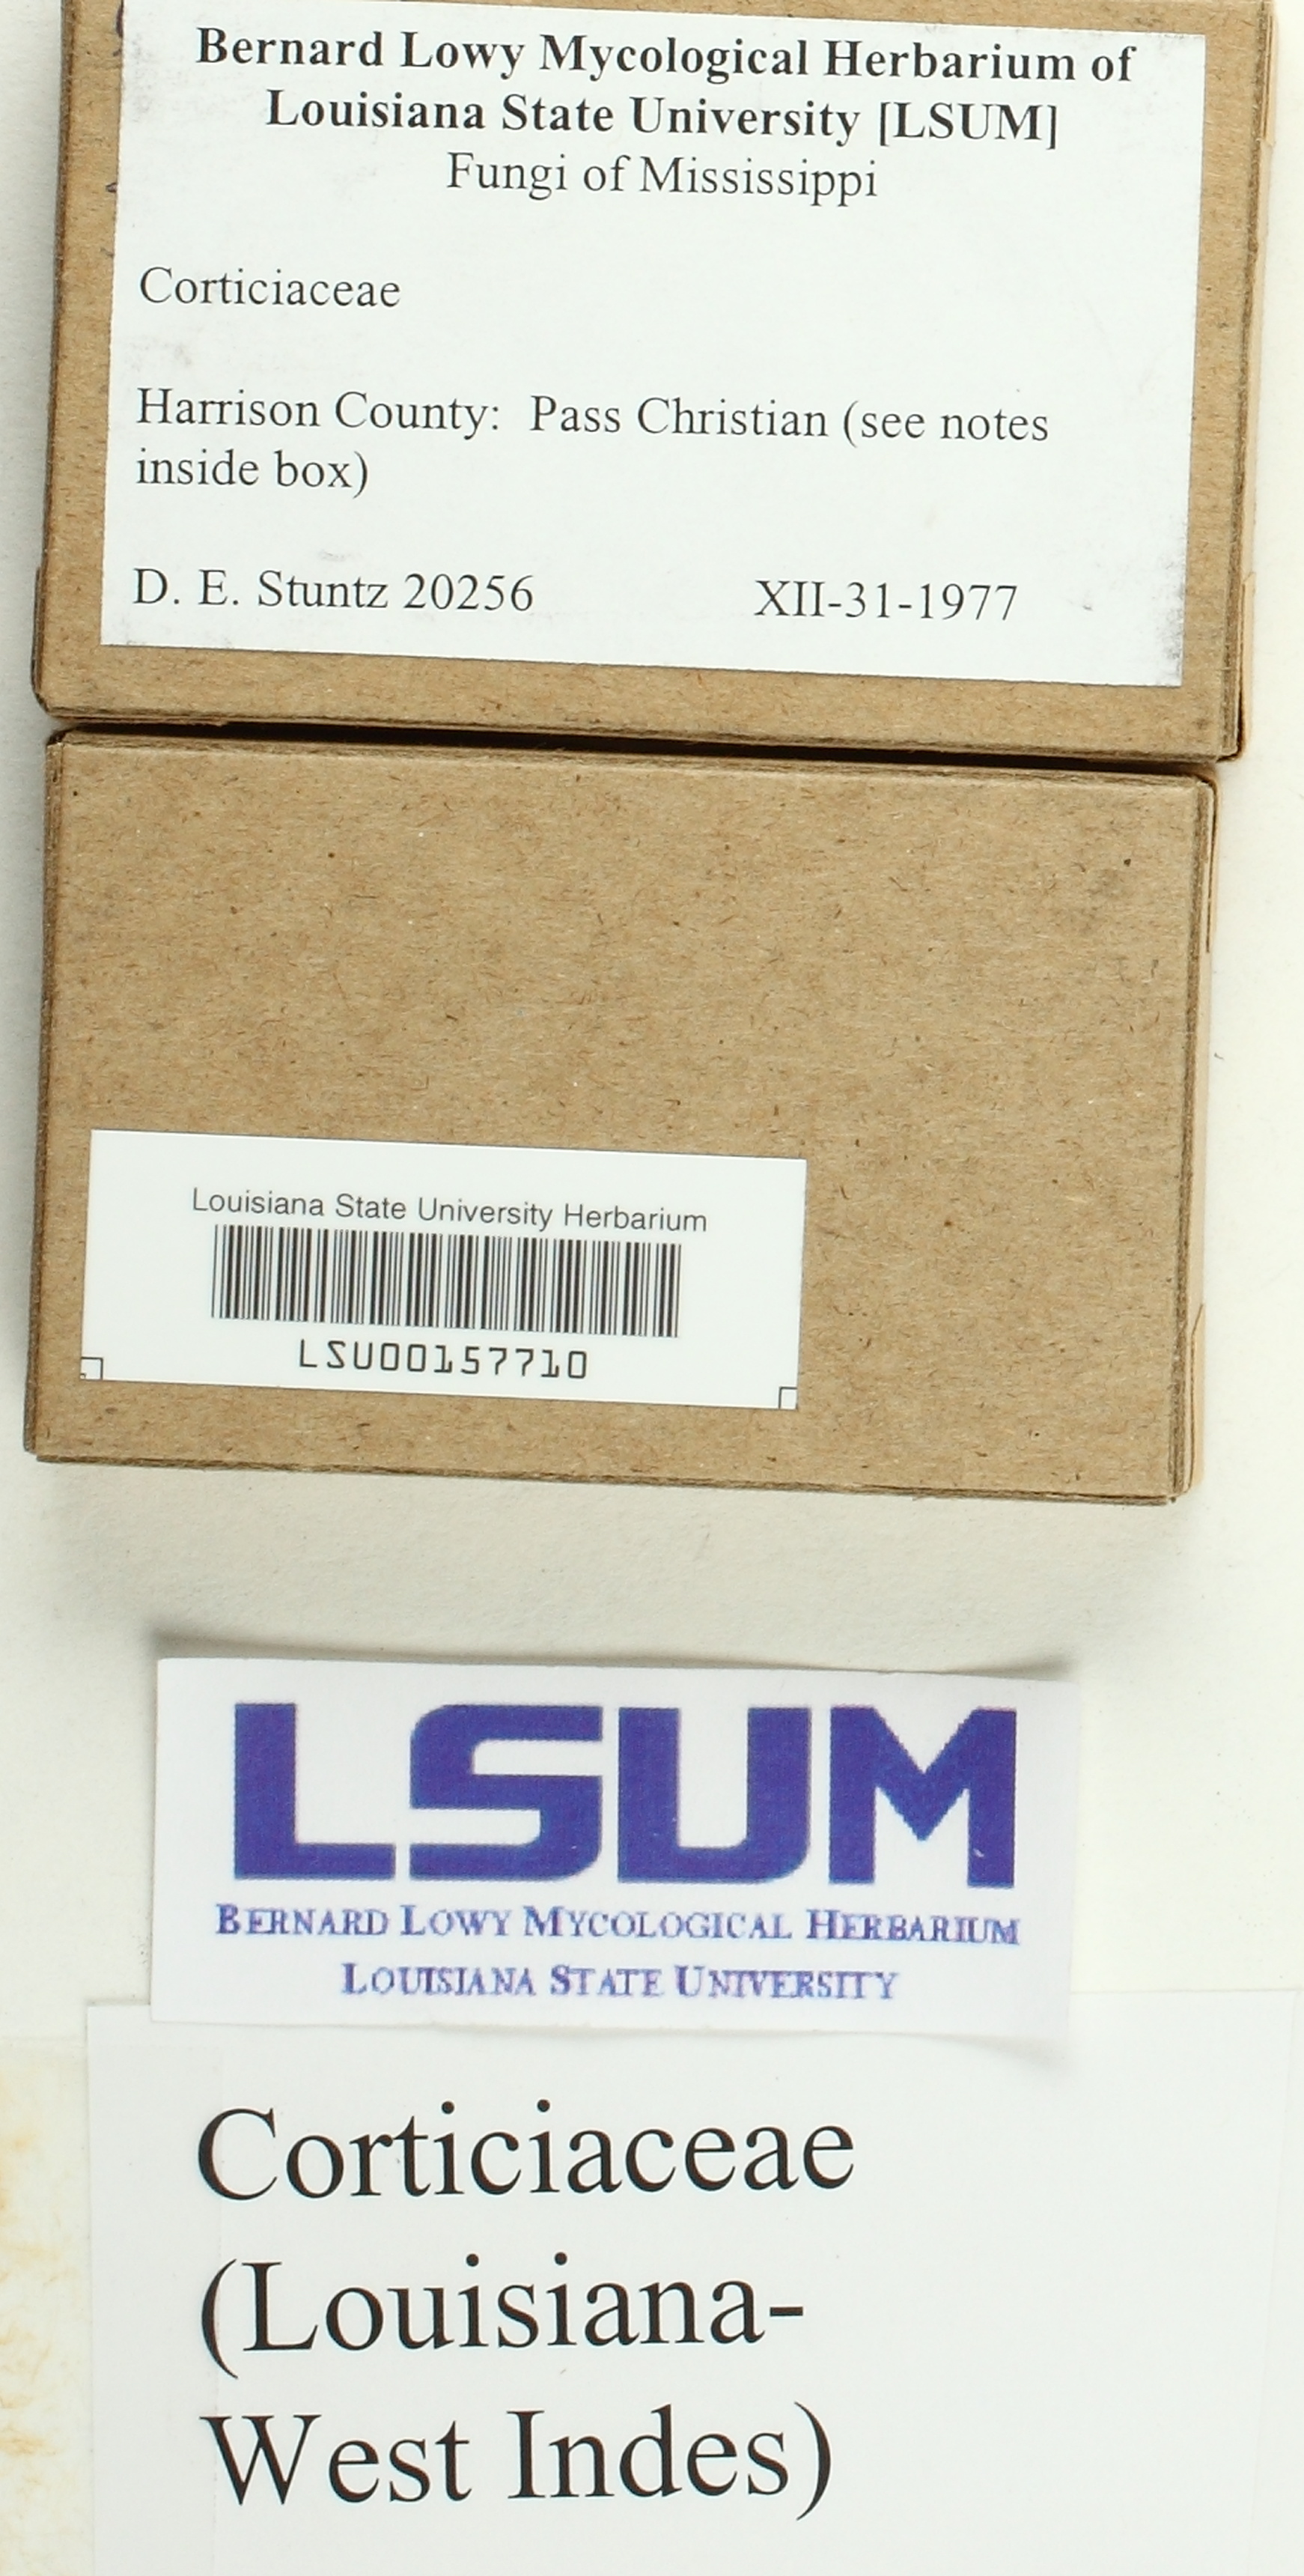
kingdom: Fungi
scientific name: Fungi
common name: Fungi
